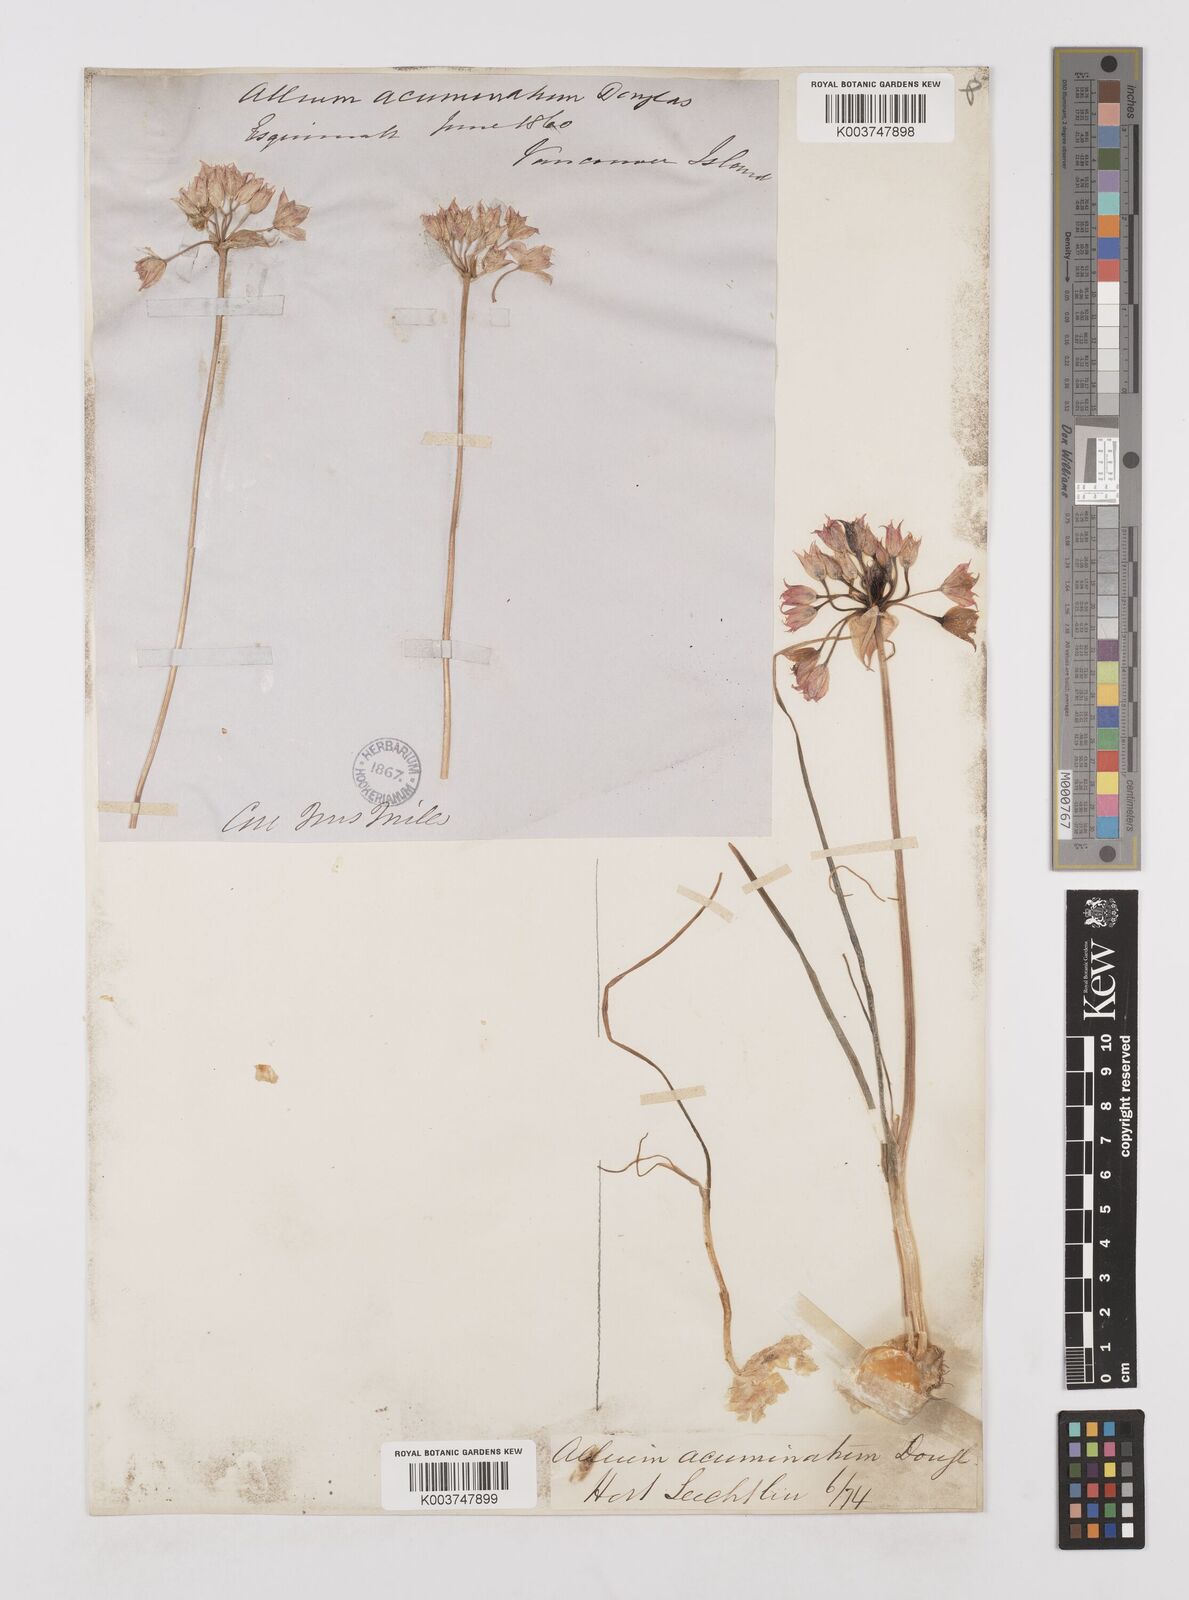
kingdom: Plantae
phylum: Tracheophyta
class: Liliopsida
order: Asparagales
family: Amaryllidaceae
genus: Allium
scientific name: Allium acuminatum
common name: Hooker's onion
